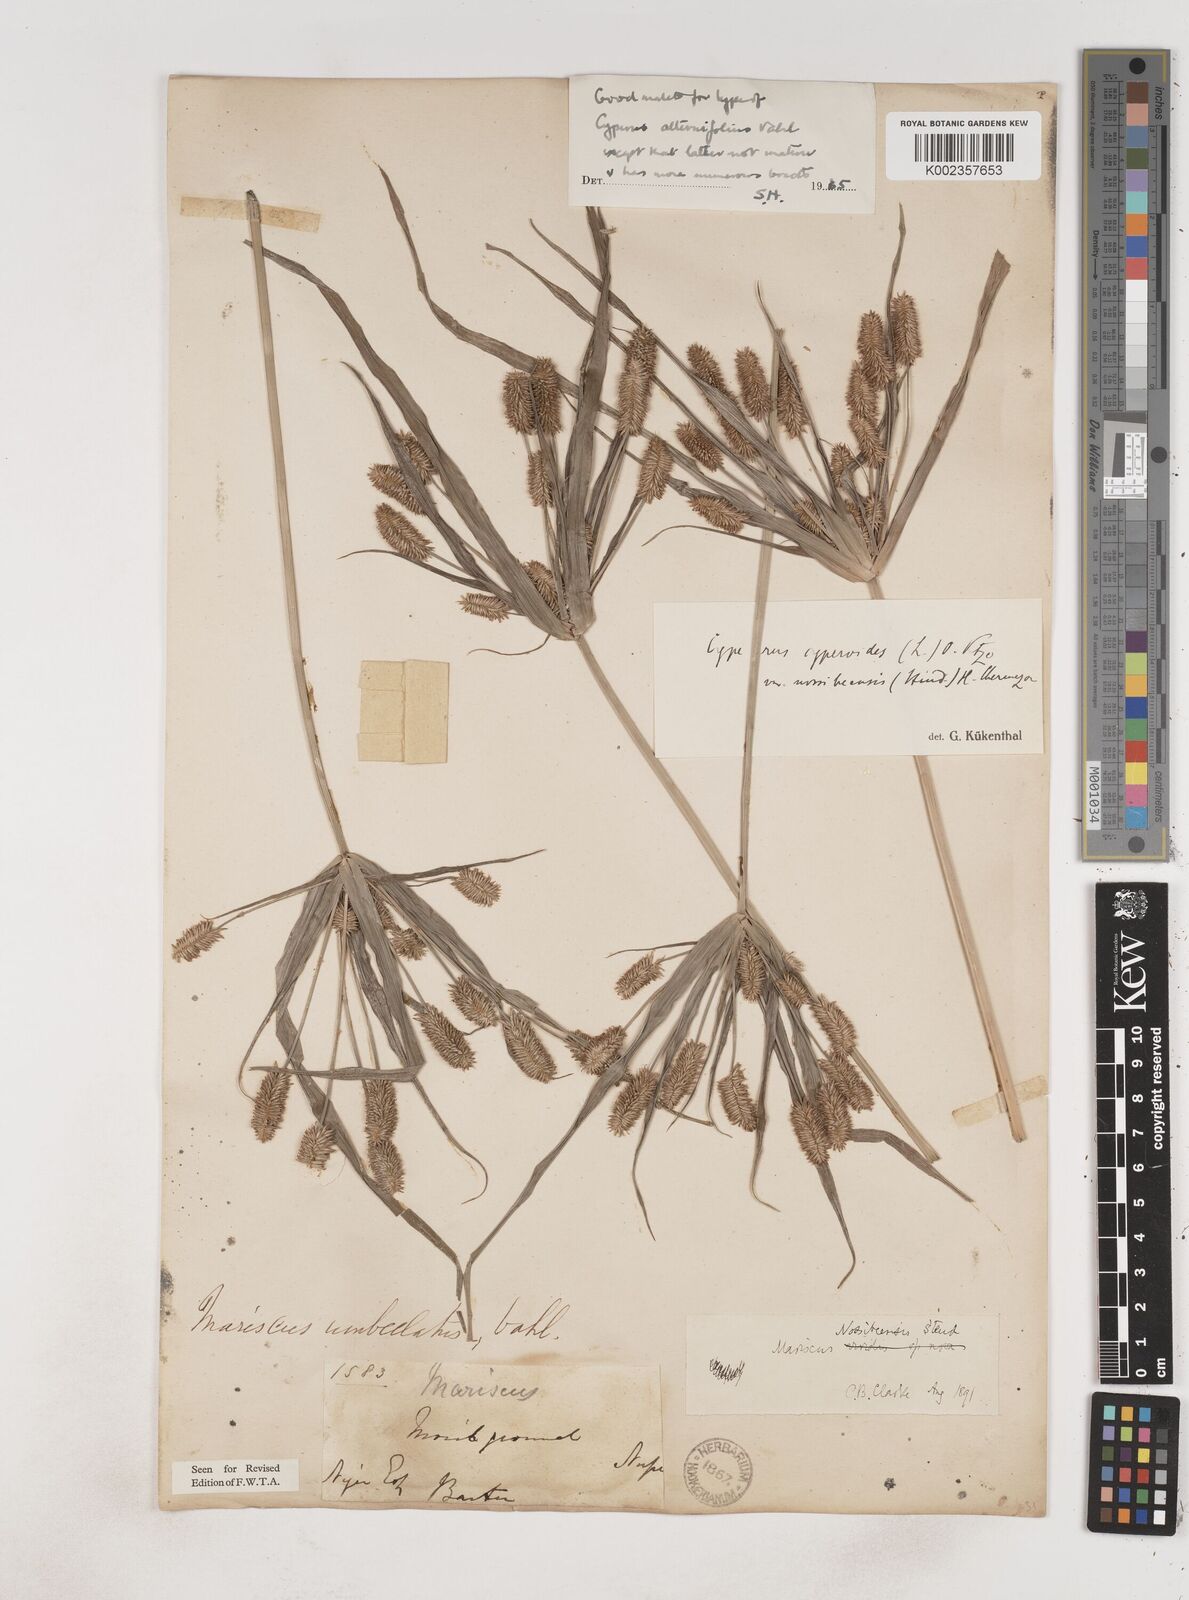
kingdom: Plantae
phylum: Tracheophyta
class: Liliopsida
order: Poales
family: Cyperaceae
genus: Cyperus
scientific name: Cyperus cyperoides
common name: Pacific island flat sedge
